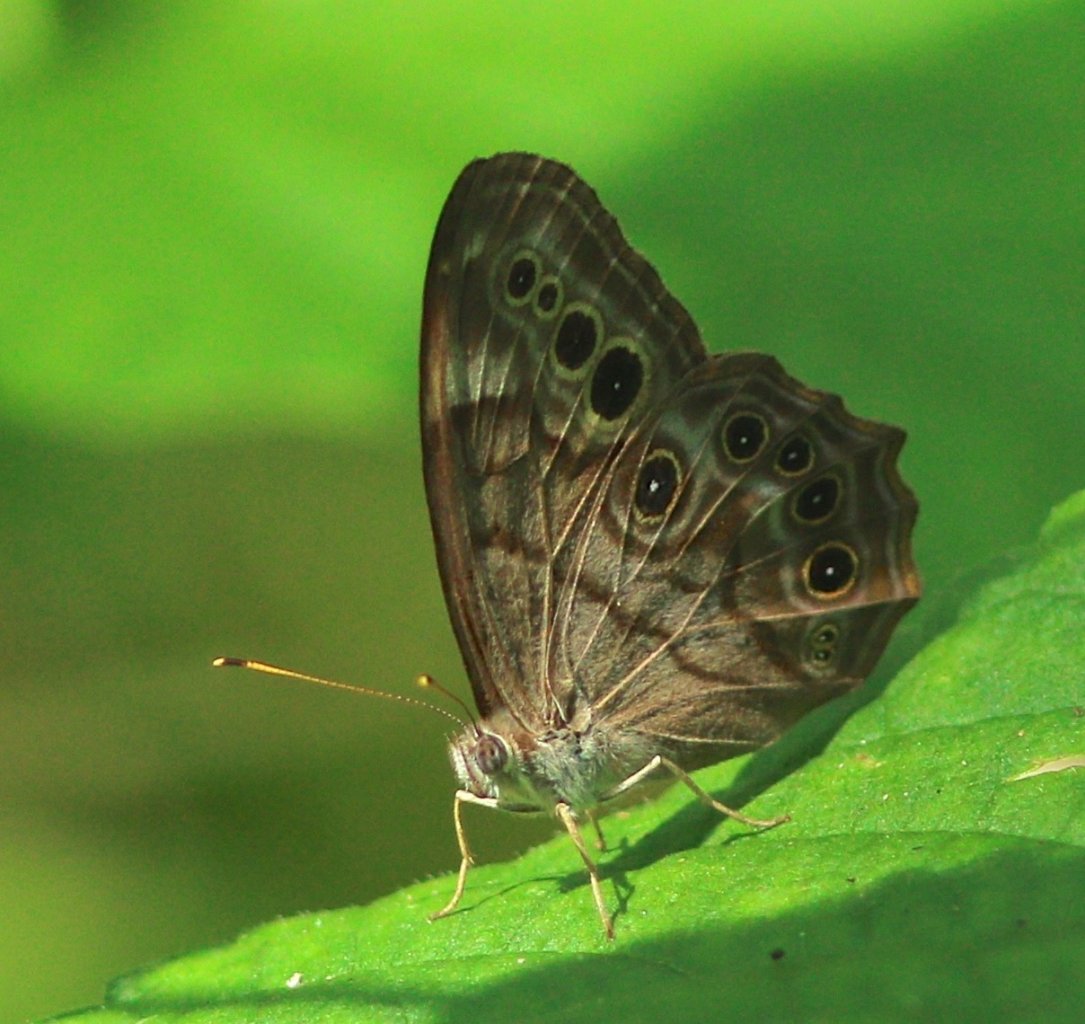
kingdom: Animalia
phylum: Arthropoda
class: Insecta
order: Lepidoptera
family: Nymphalidae
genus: Lethe
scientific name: Lethe anthedon
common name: Northern Pearly-Eye
